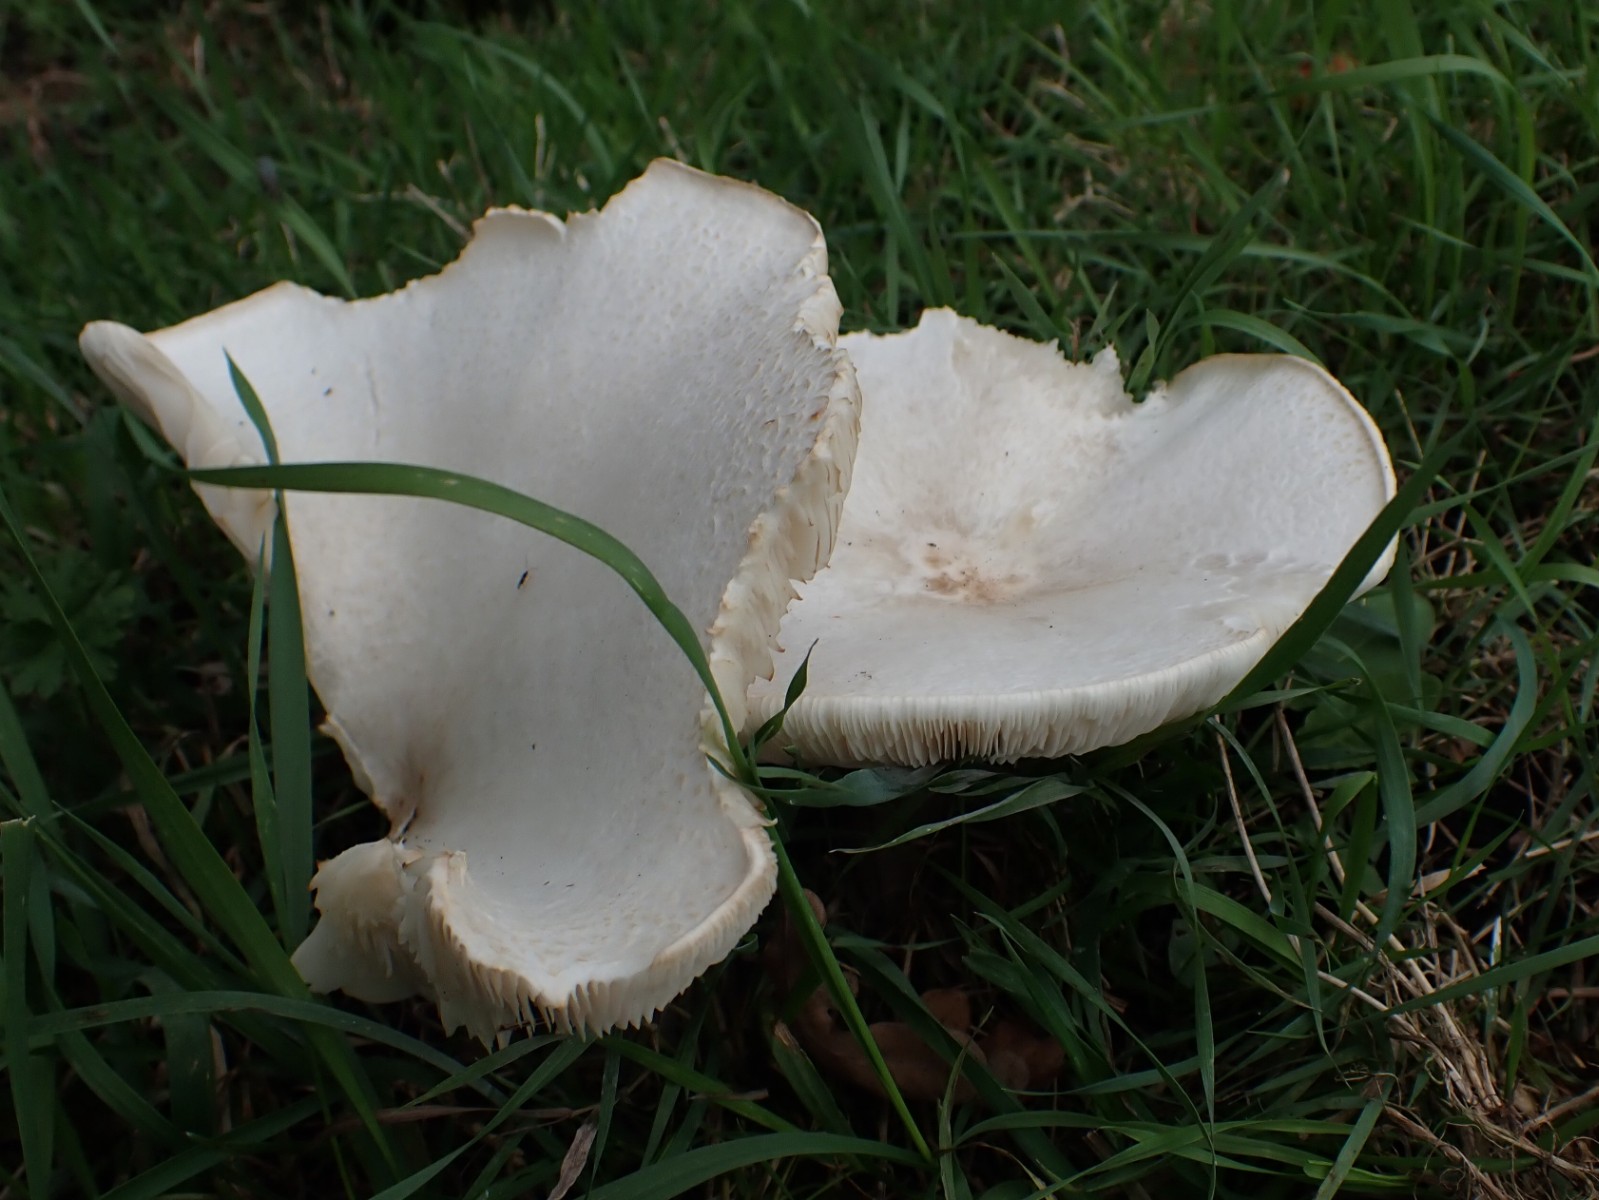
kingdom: Fungi
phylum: Basidiomycota
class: Agaricomycetes
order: Agaricales
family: Tricholomataceae
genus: Melanoleuca
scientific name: Melanoleuca verrucipes
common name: rufodet munkehat
